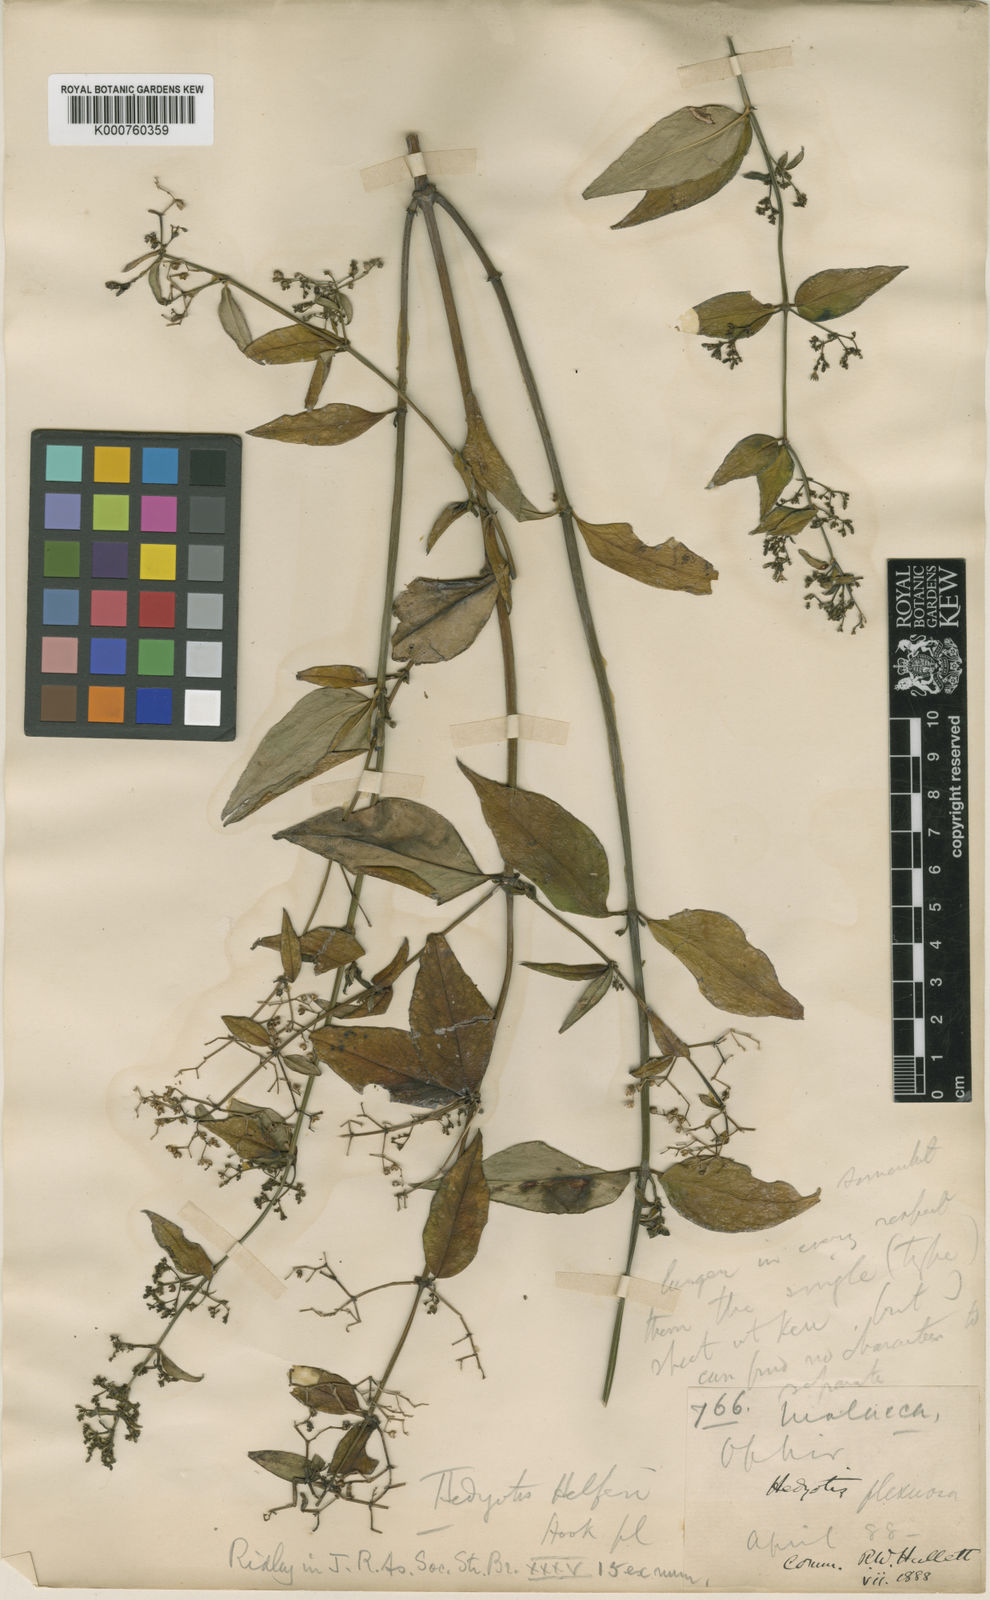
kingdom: Plantae
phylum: Tracheophyta
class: Magnoliopsida
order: Gentianales
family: Rubiaceae
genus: Hedyotis
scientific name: Hedyotis flexuosa
